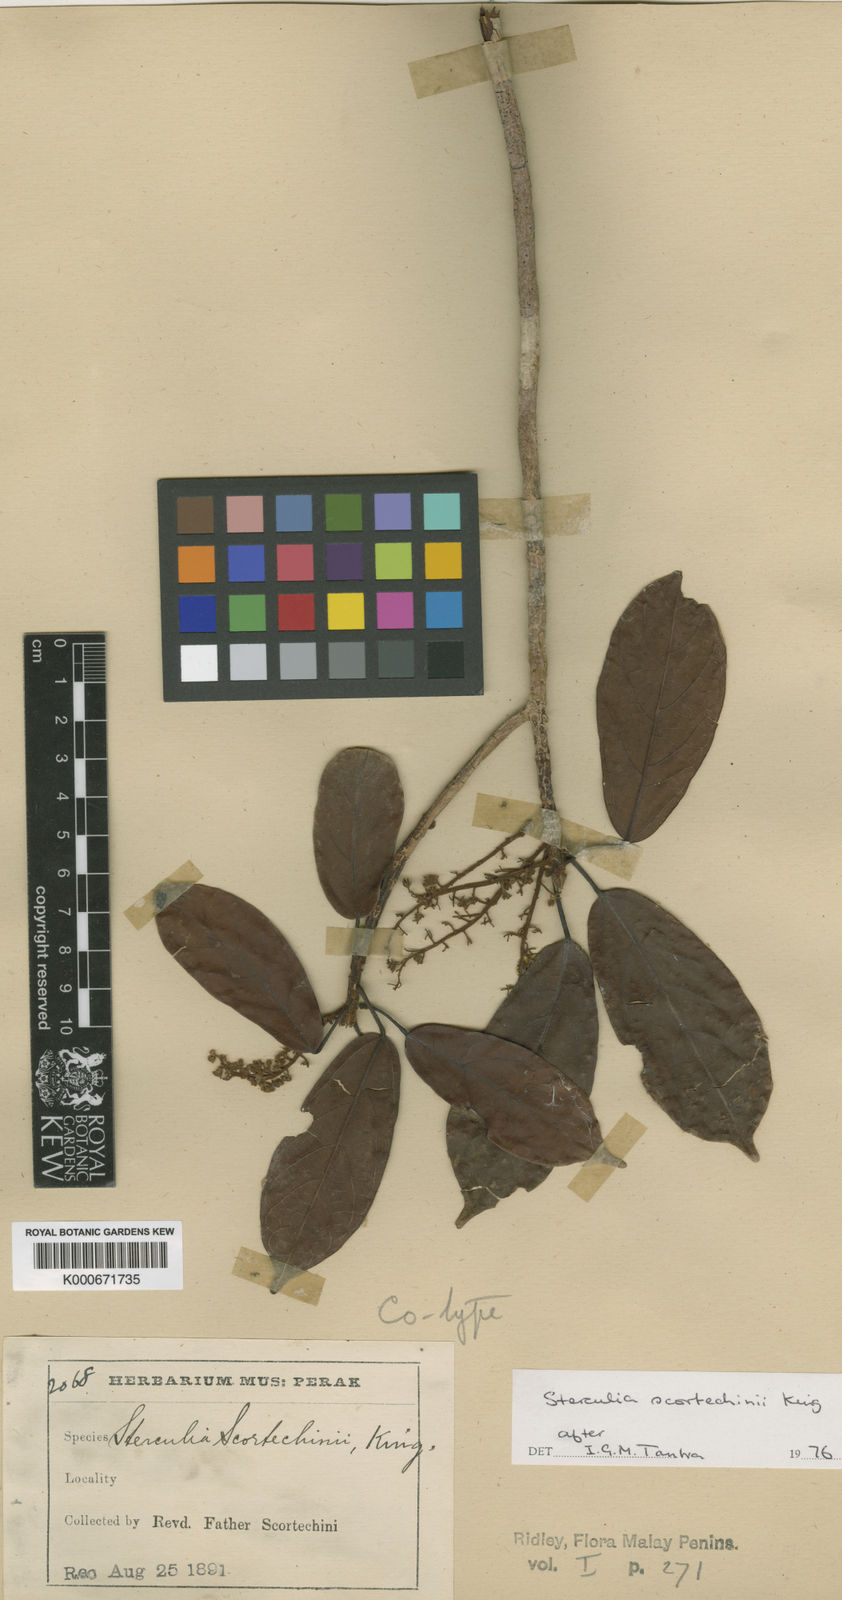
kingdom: Plantae
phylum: Tracheophyta
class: Magnoliopsida
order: Malvales
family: Malvaceae
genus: Sterculia
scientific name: Sterculia
